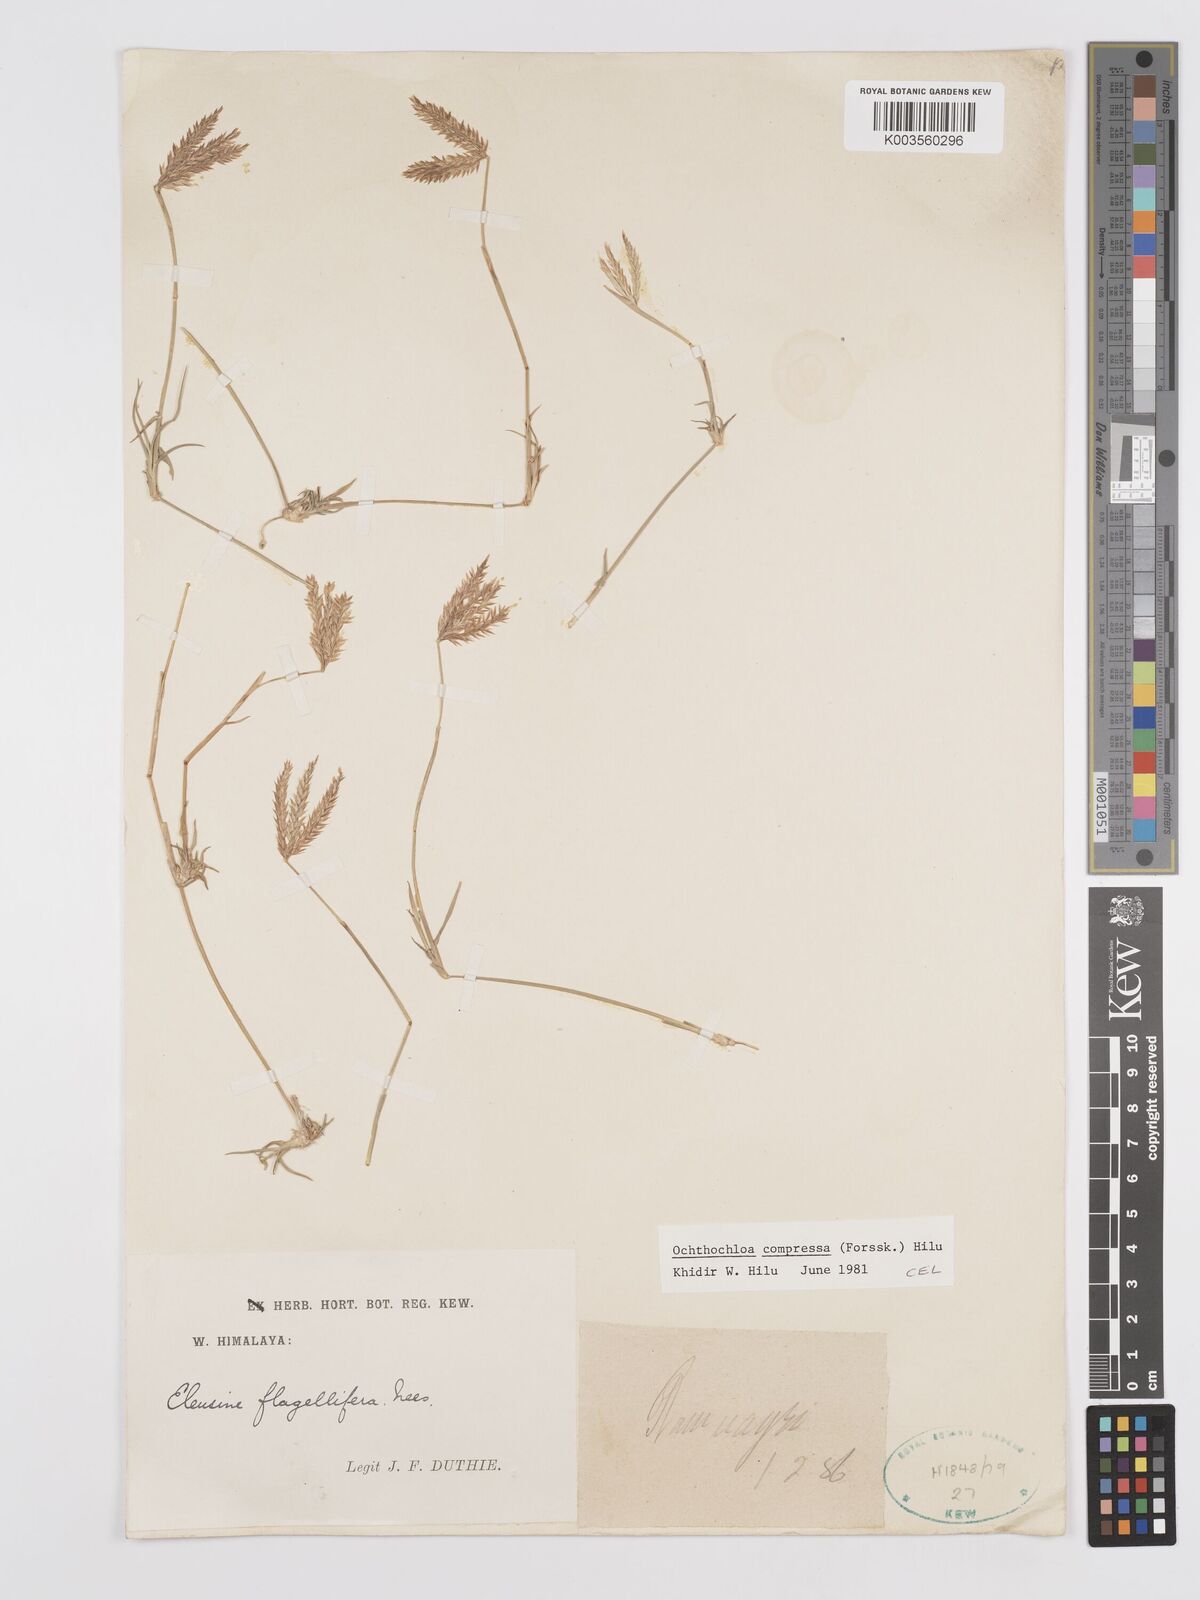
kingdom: Plantae
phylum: Tracheophyta
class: Liliopsida
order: Poales
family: Poaceae
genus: Chloris
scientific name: Chloris flagellifera
